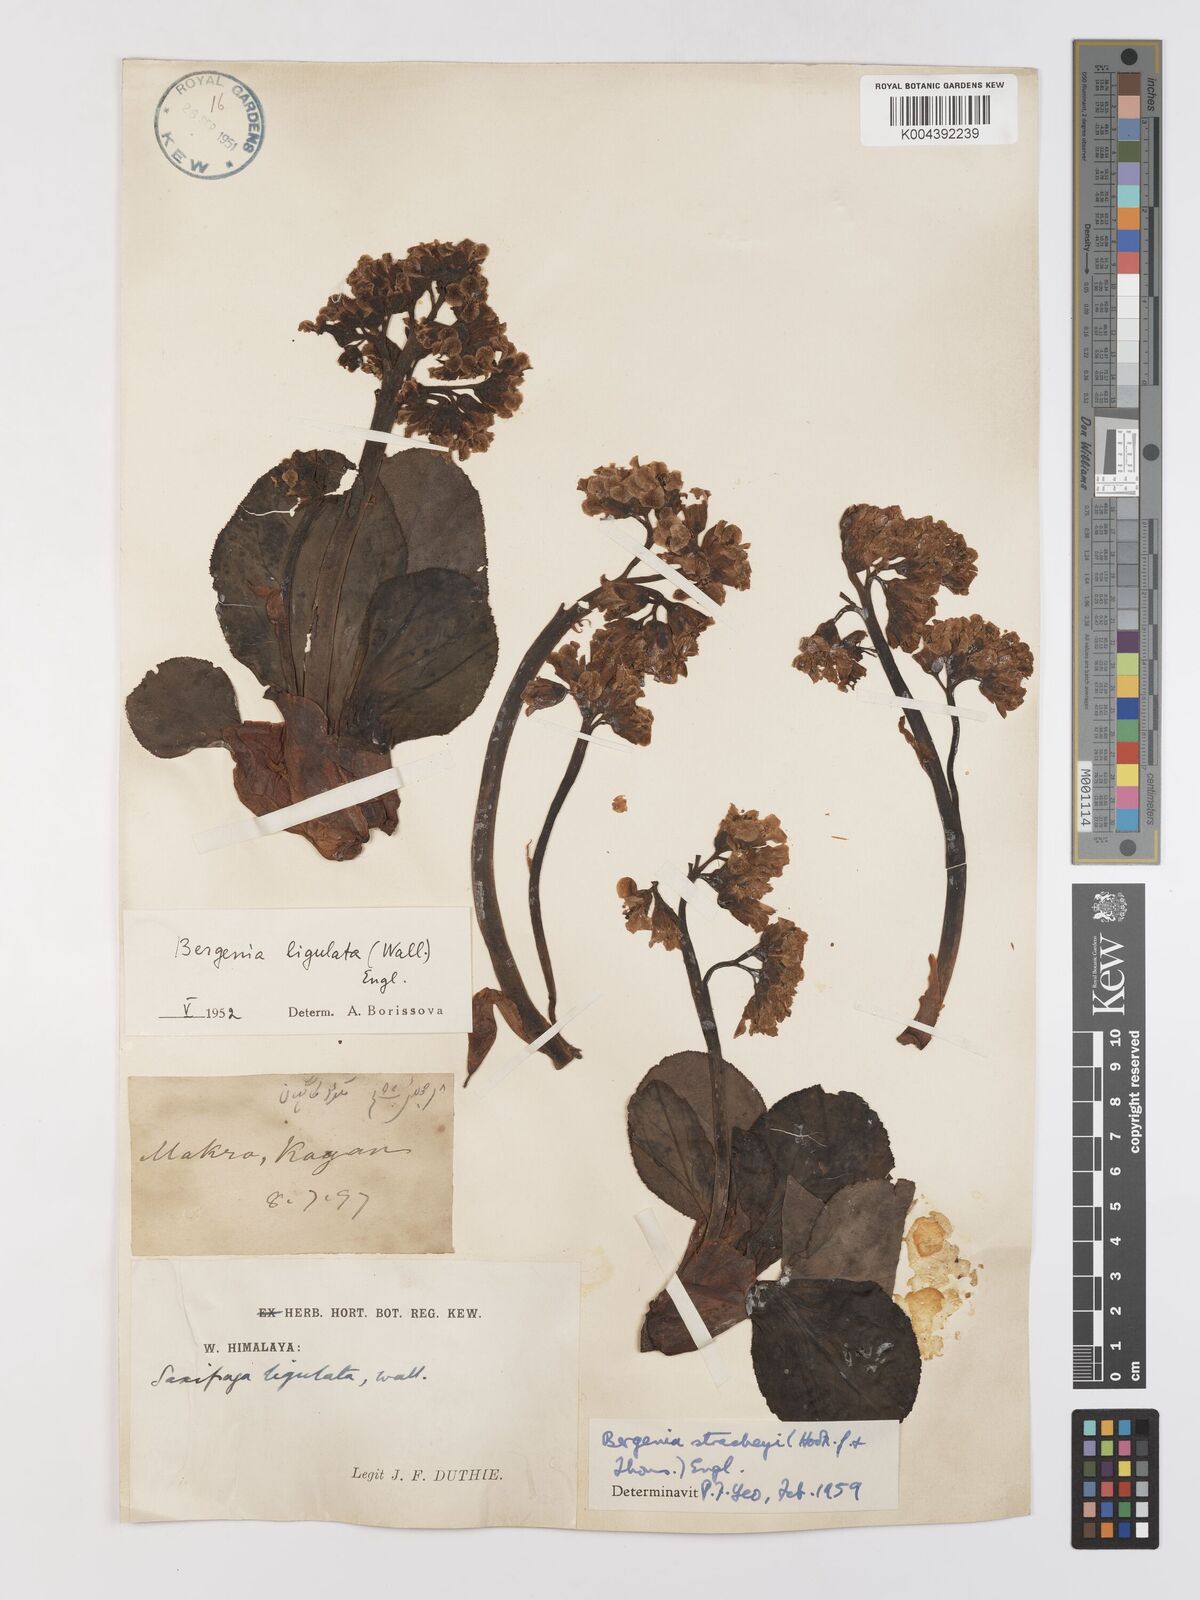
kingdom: Plantae
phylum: Tracheophyta
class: Magnoliopsida
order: Saxifragales
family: Saxifragaceae
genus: Bergenia
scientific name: Bergenia stracheyi
